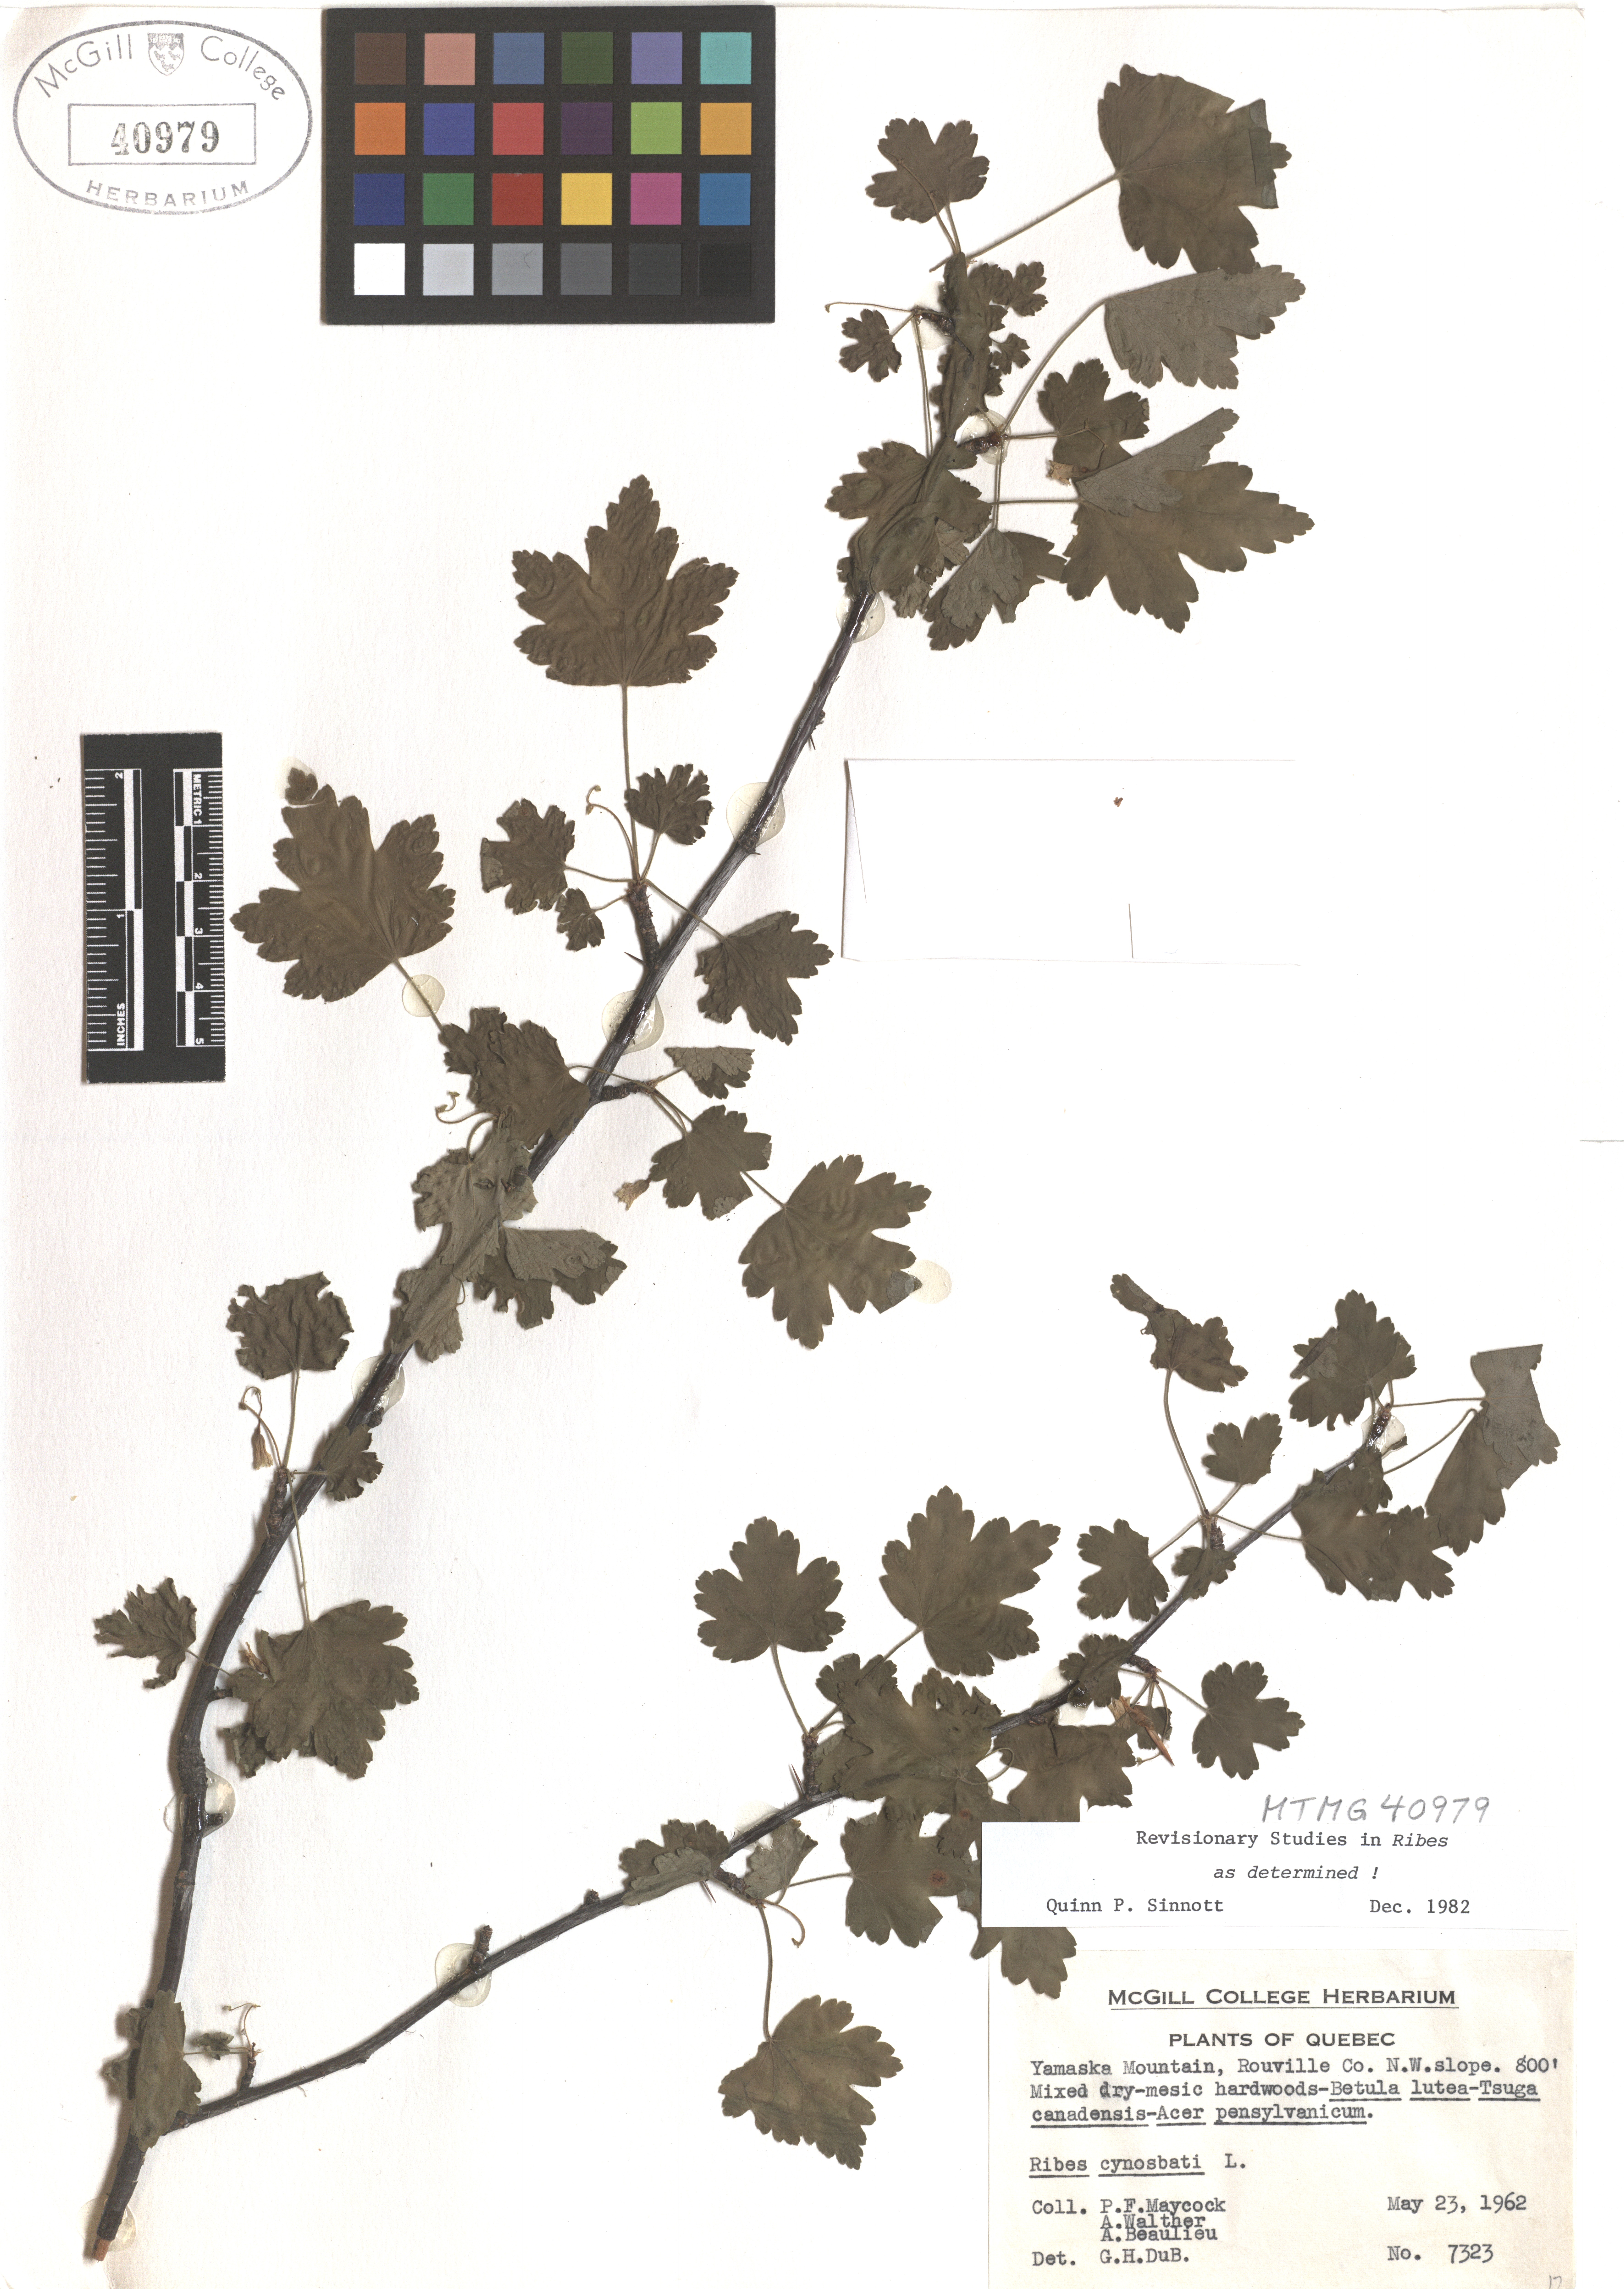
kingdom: Plantae
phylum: Tracheophyta
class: Magnoliopsida
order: Saxifragales
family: Grossulariaceae
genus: Ribes
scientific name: Ribes cynosbati
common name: American gooseberry
